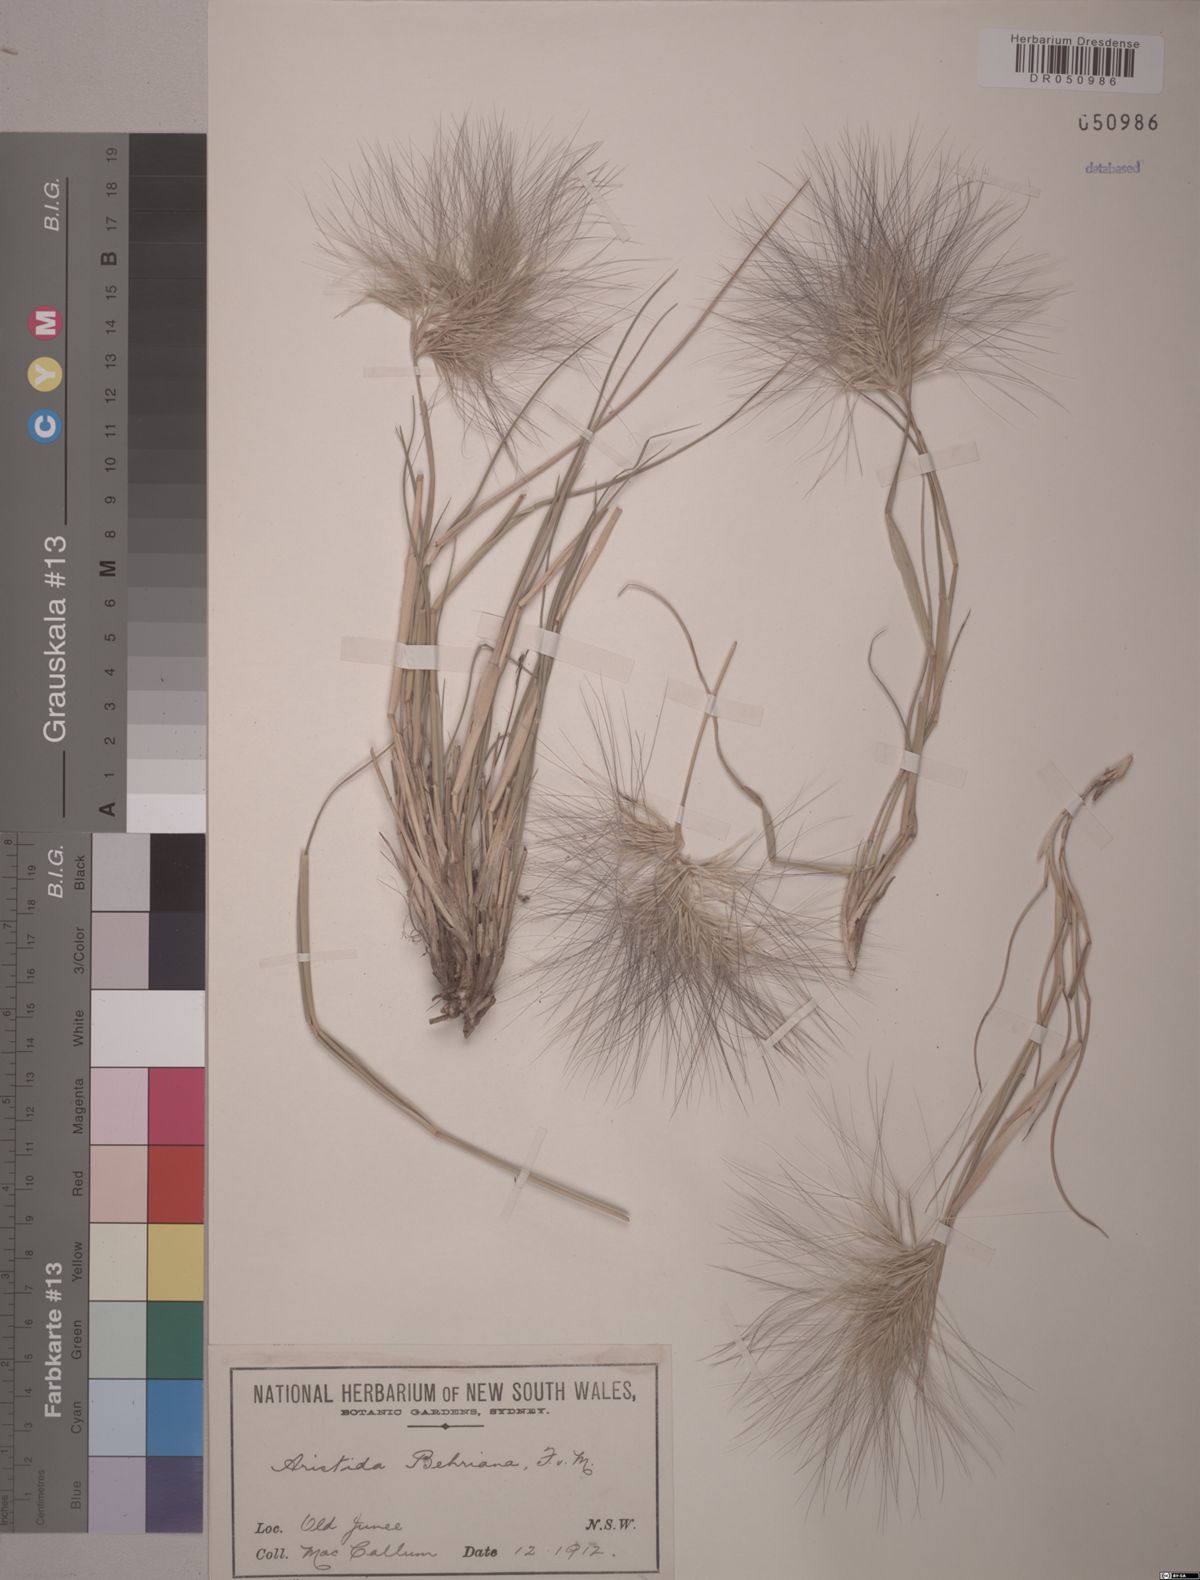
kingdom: Plantae
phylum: Tracheophyta
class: Liliopsida
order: Poales
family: Poaceae
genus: Aristida
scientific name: Aristida behriana
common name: Long-awn wire grass
